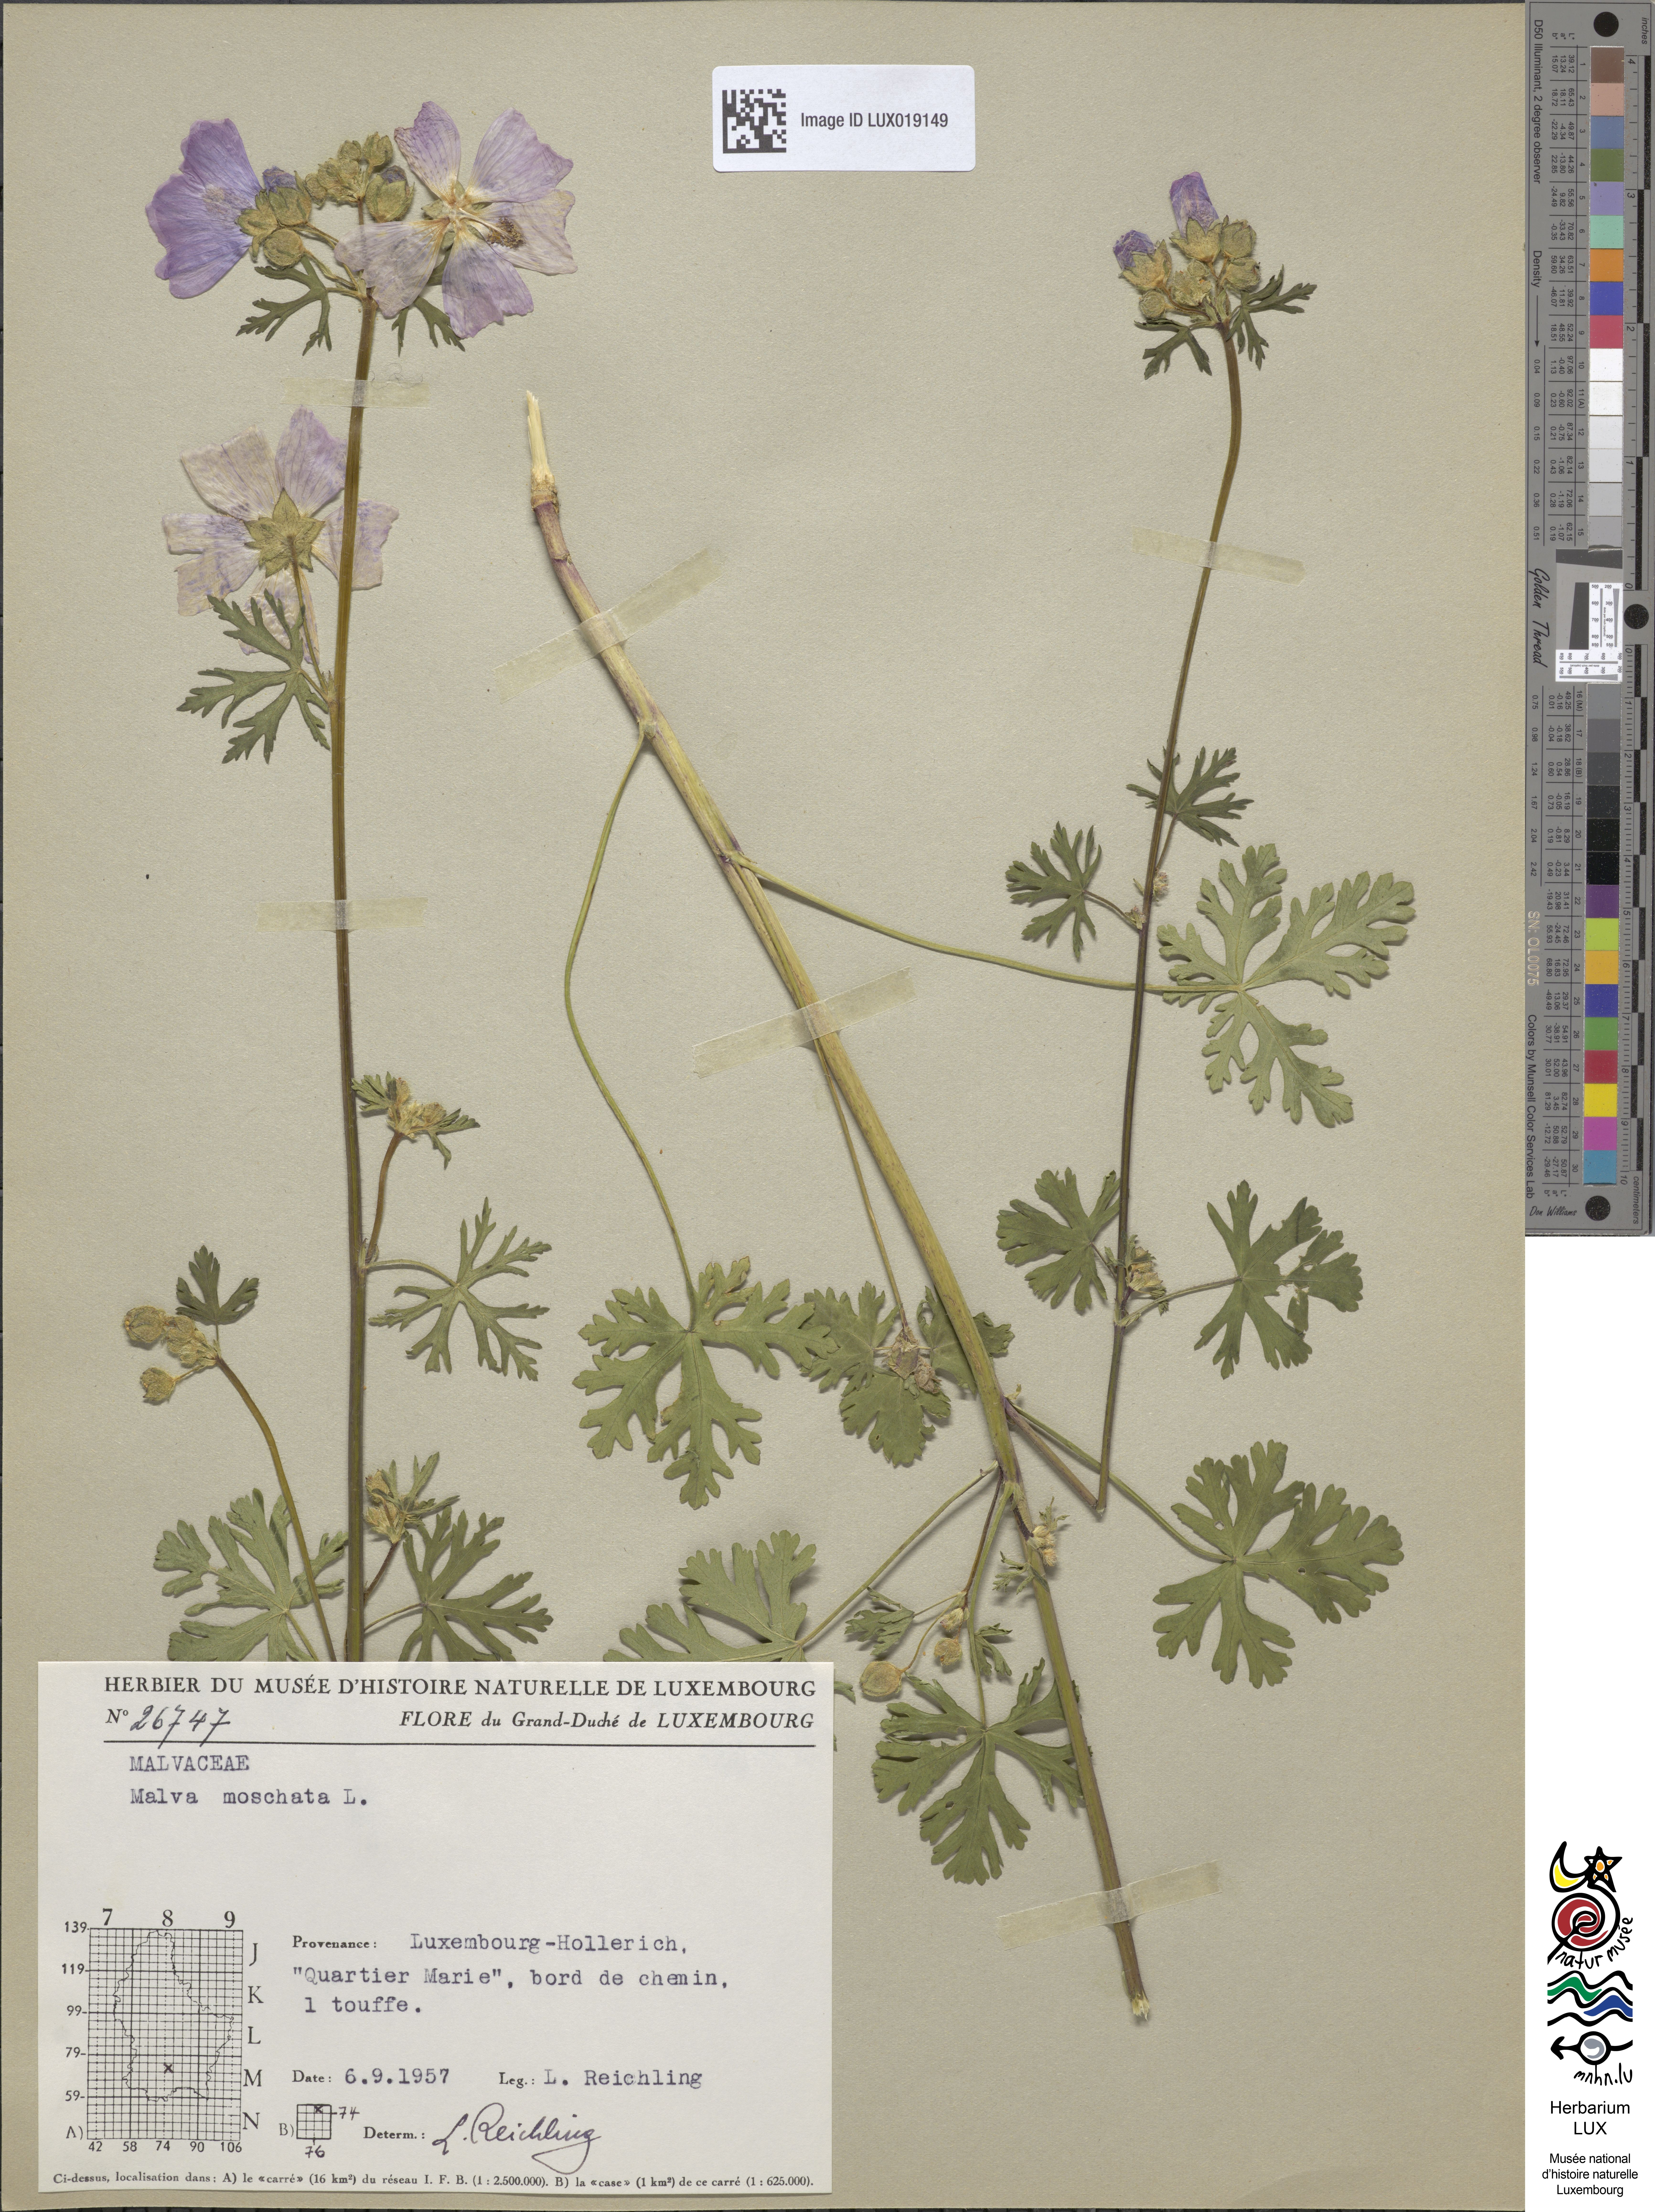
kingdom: Plantae
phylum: Tracheophyta
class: Magnoliopsida
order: Malvales
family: Malvaceae
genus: Malva
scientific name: Malva moschata
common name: Musk mallow
